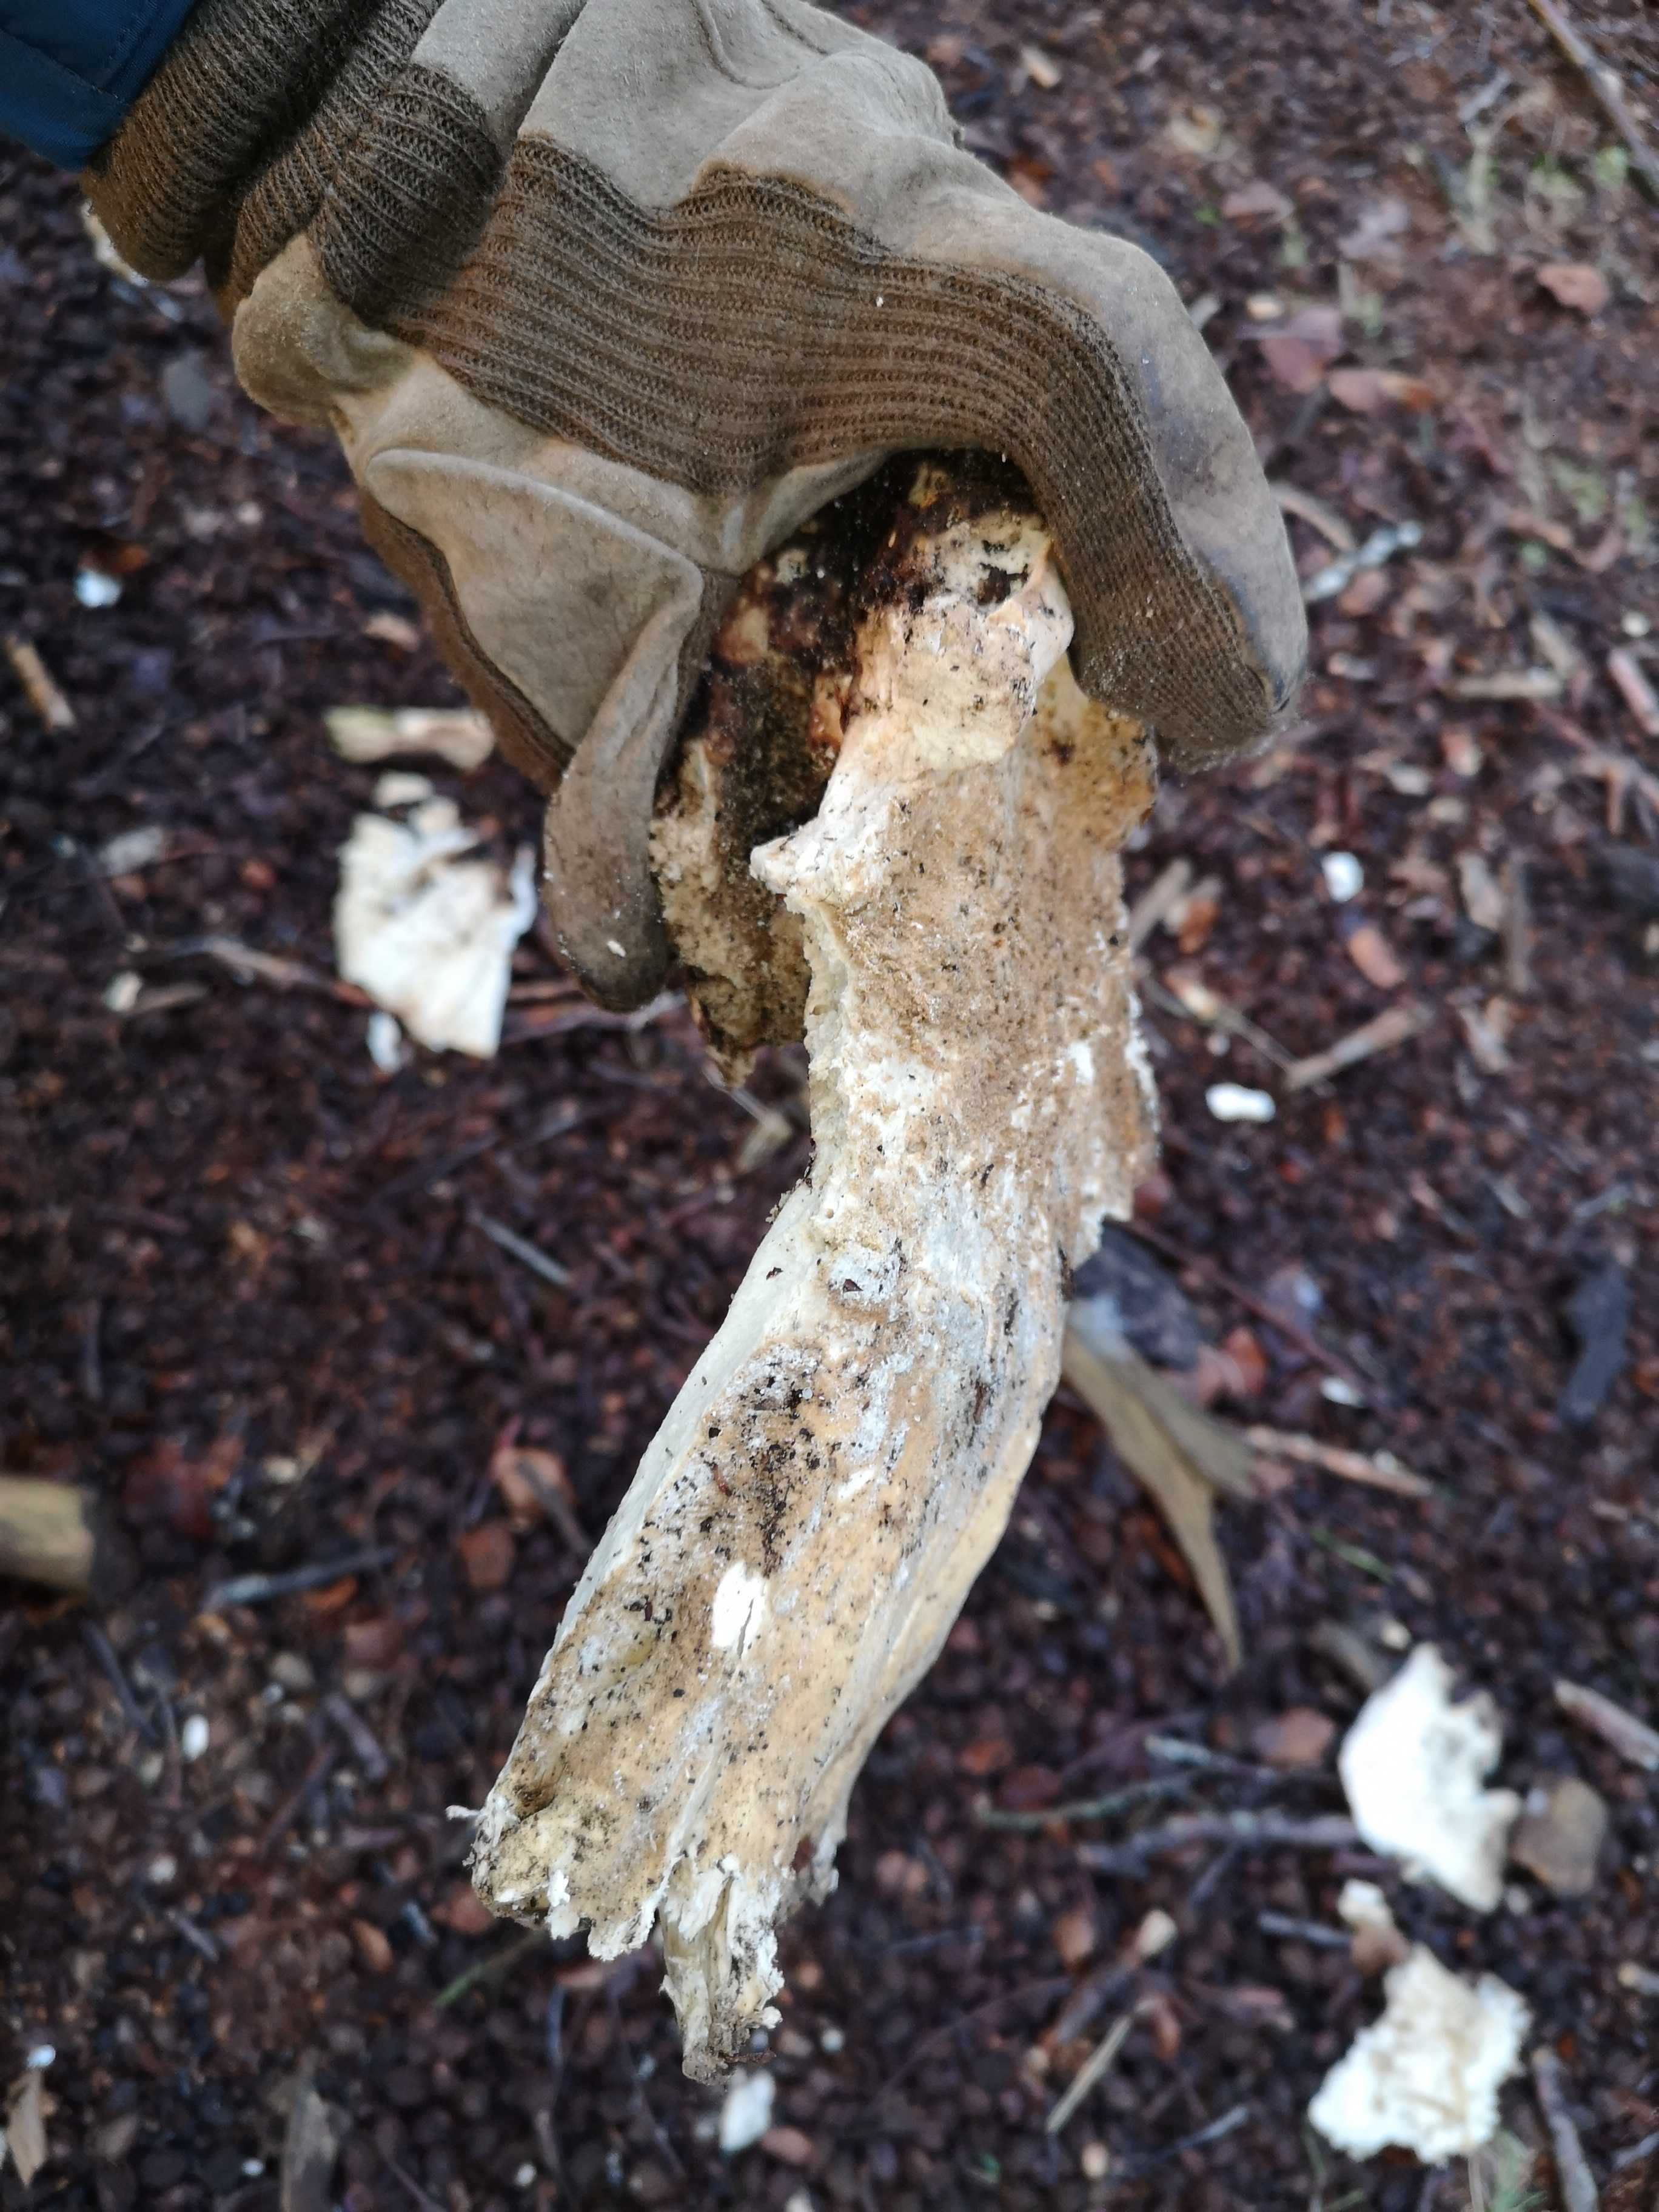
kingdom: Fungi
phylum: Basidiomycota
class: Agaricomycetes
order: Polyporales
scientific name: Polyporales
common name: poresvampordenen
